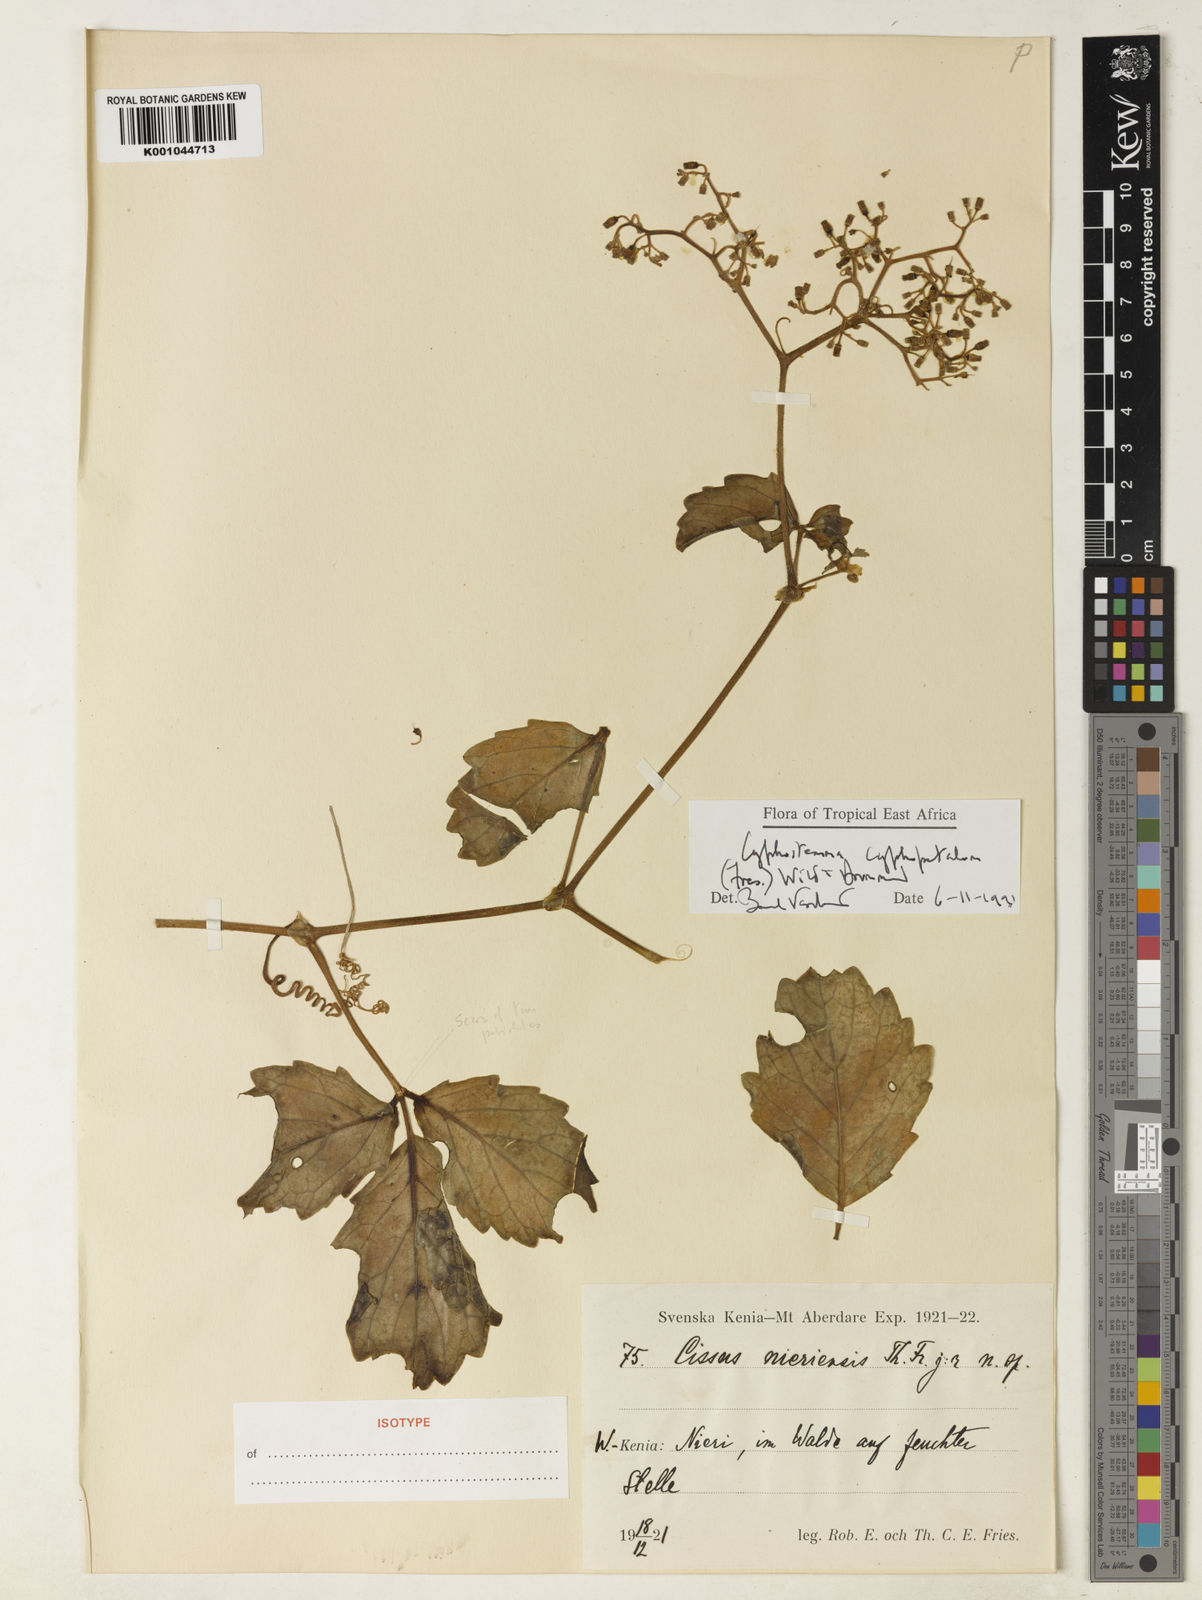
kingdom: Plantae
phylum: Tracheophyta
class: Magnoliopsida
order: Vitales
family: Vitaceae
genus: Cyphostemma
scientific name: Cyphostemma cyphopetalum
